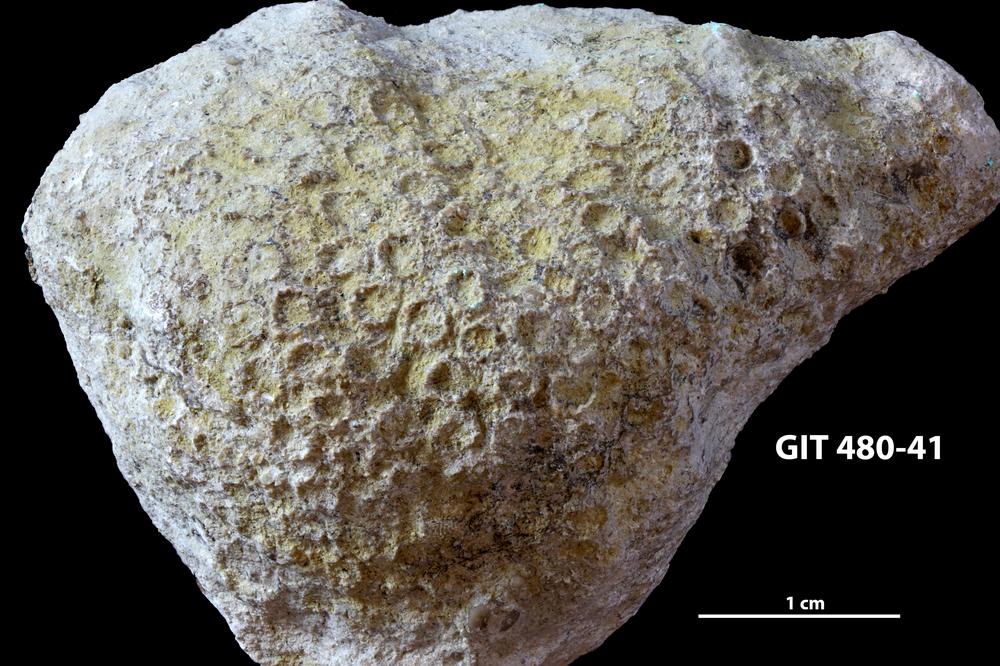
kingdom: Animalia
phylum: Xenacoelomorpha
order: Acoela
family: Proporidae
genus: Propora
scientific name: Propora
